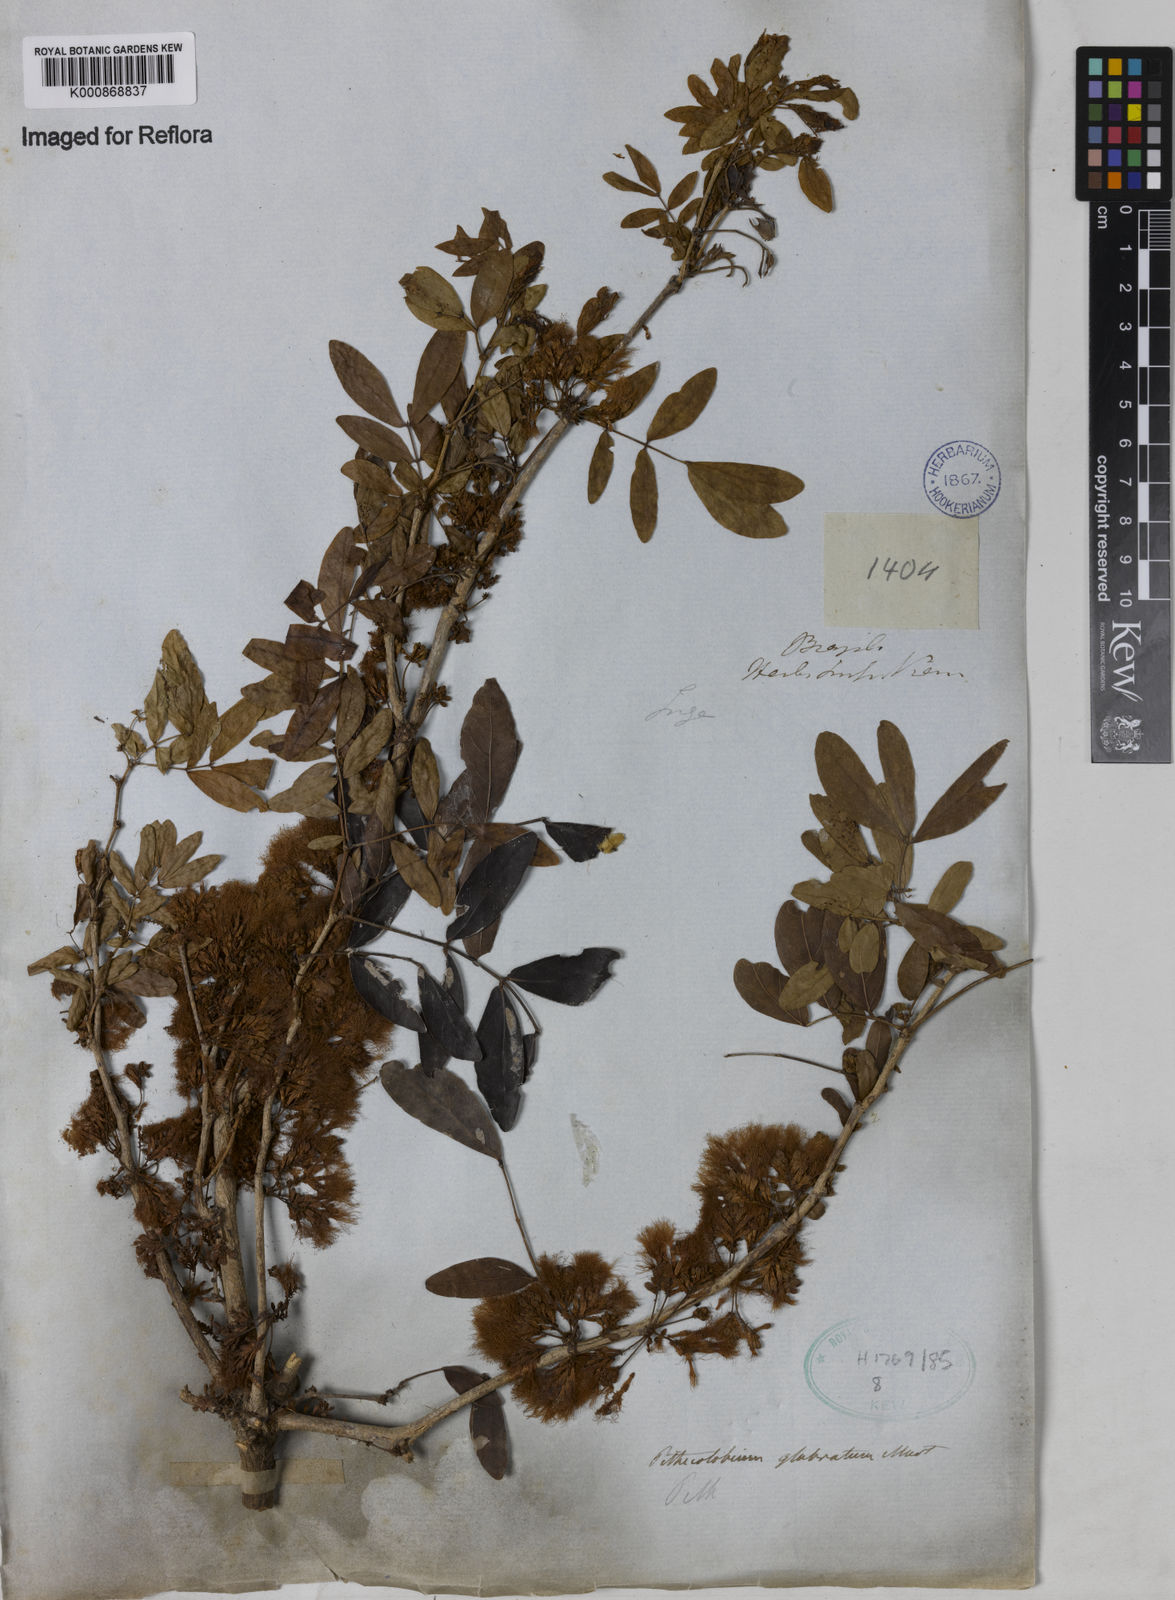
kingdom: Plantae
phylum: Tracheophyta
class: Magnoliopsida
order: Fabales
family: Fabaceae
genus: Zygia
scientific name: Zygia
